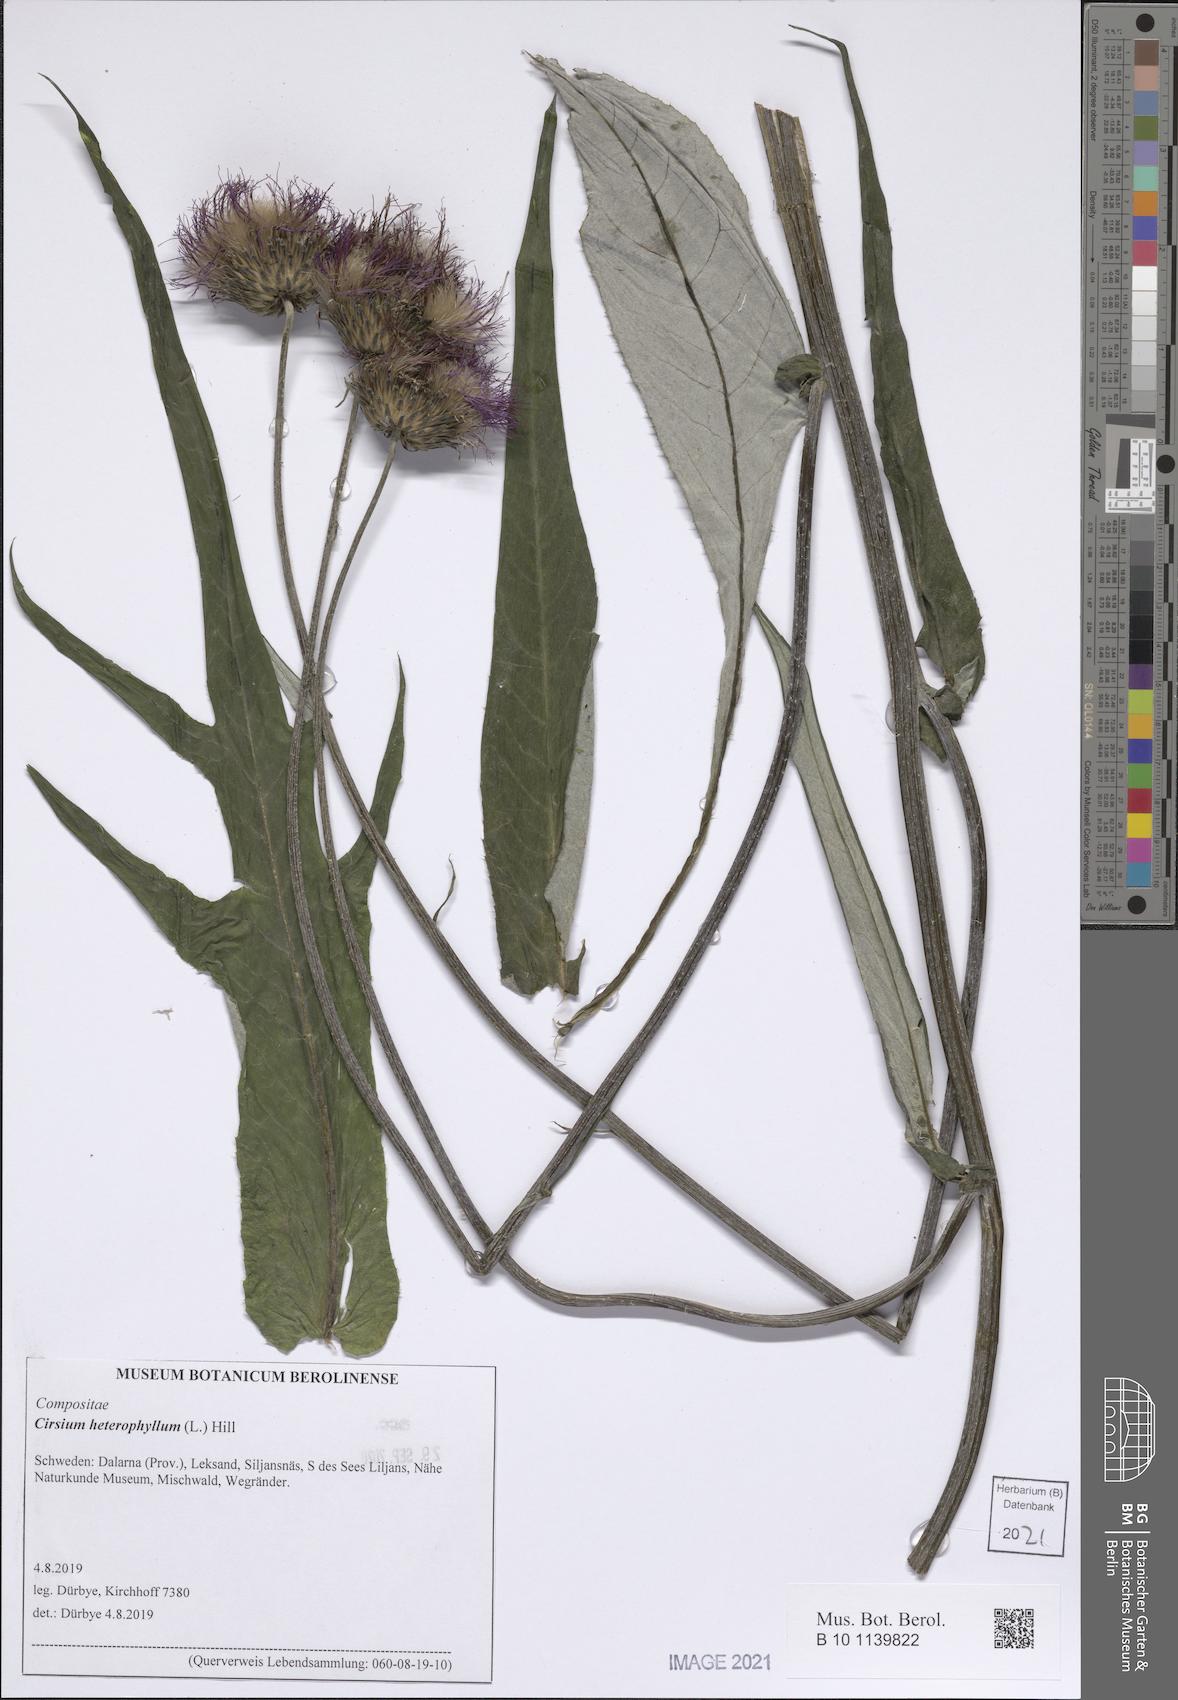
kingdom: Plantae
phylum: Tracheophyta
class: Magnoliopsida
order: Asterales
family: Asteraceae
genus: Cirsium
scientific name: Cirsium heterophyllum
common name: Melancholy thistle
